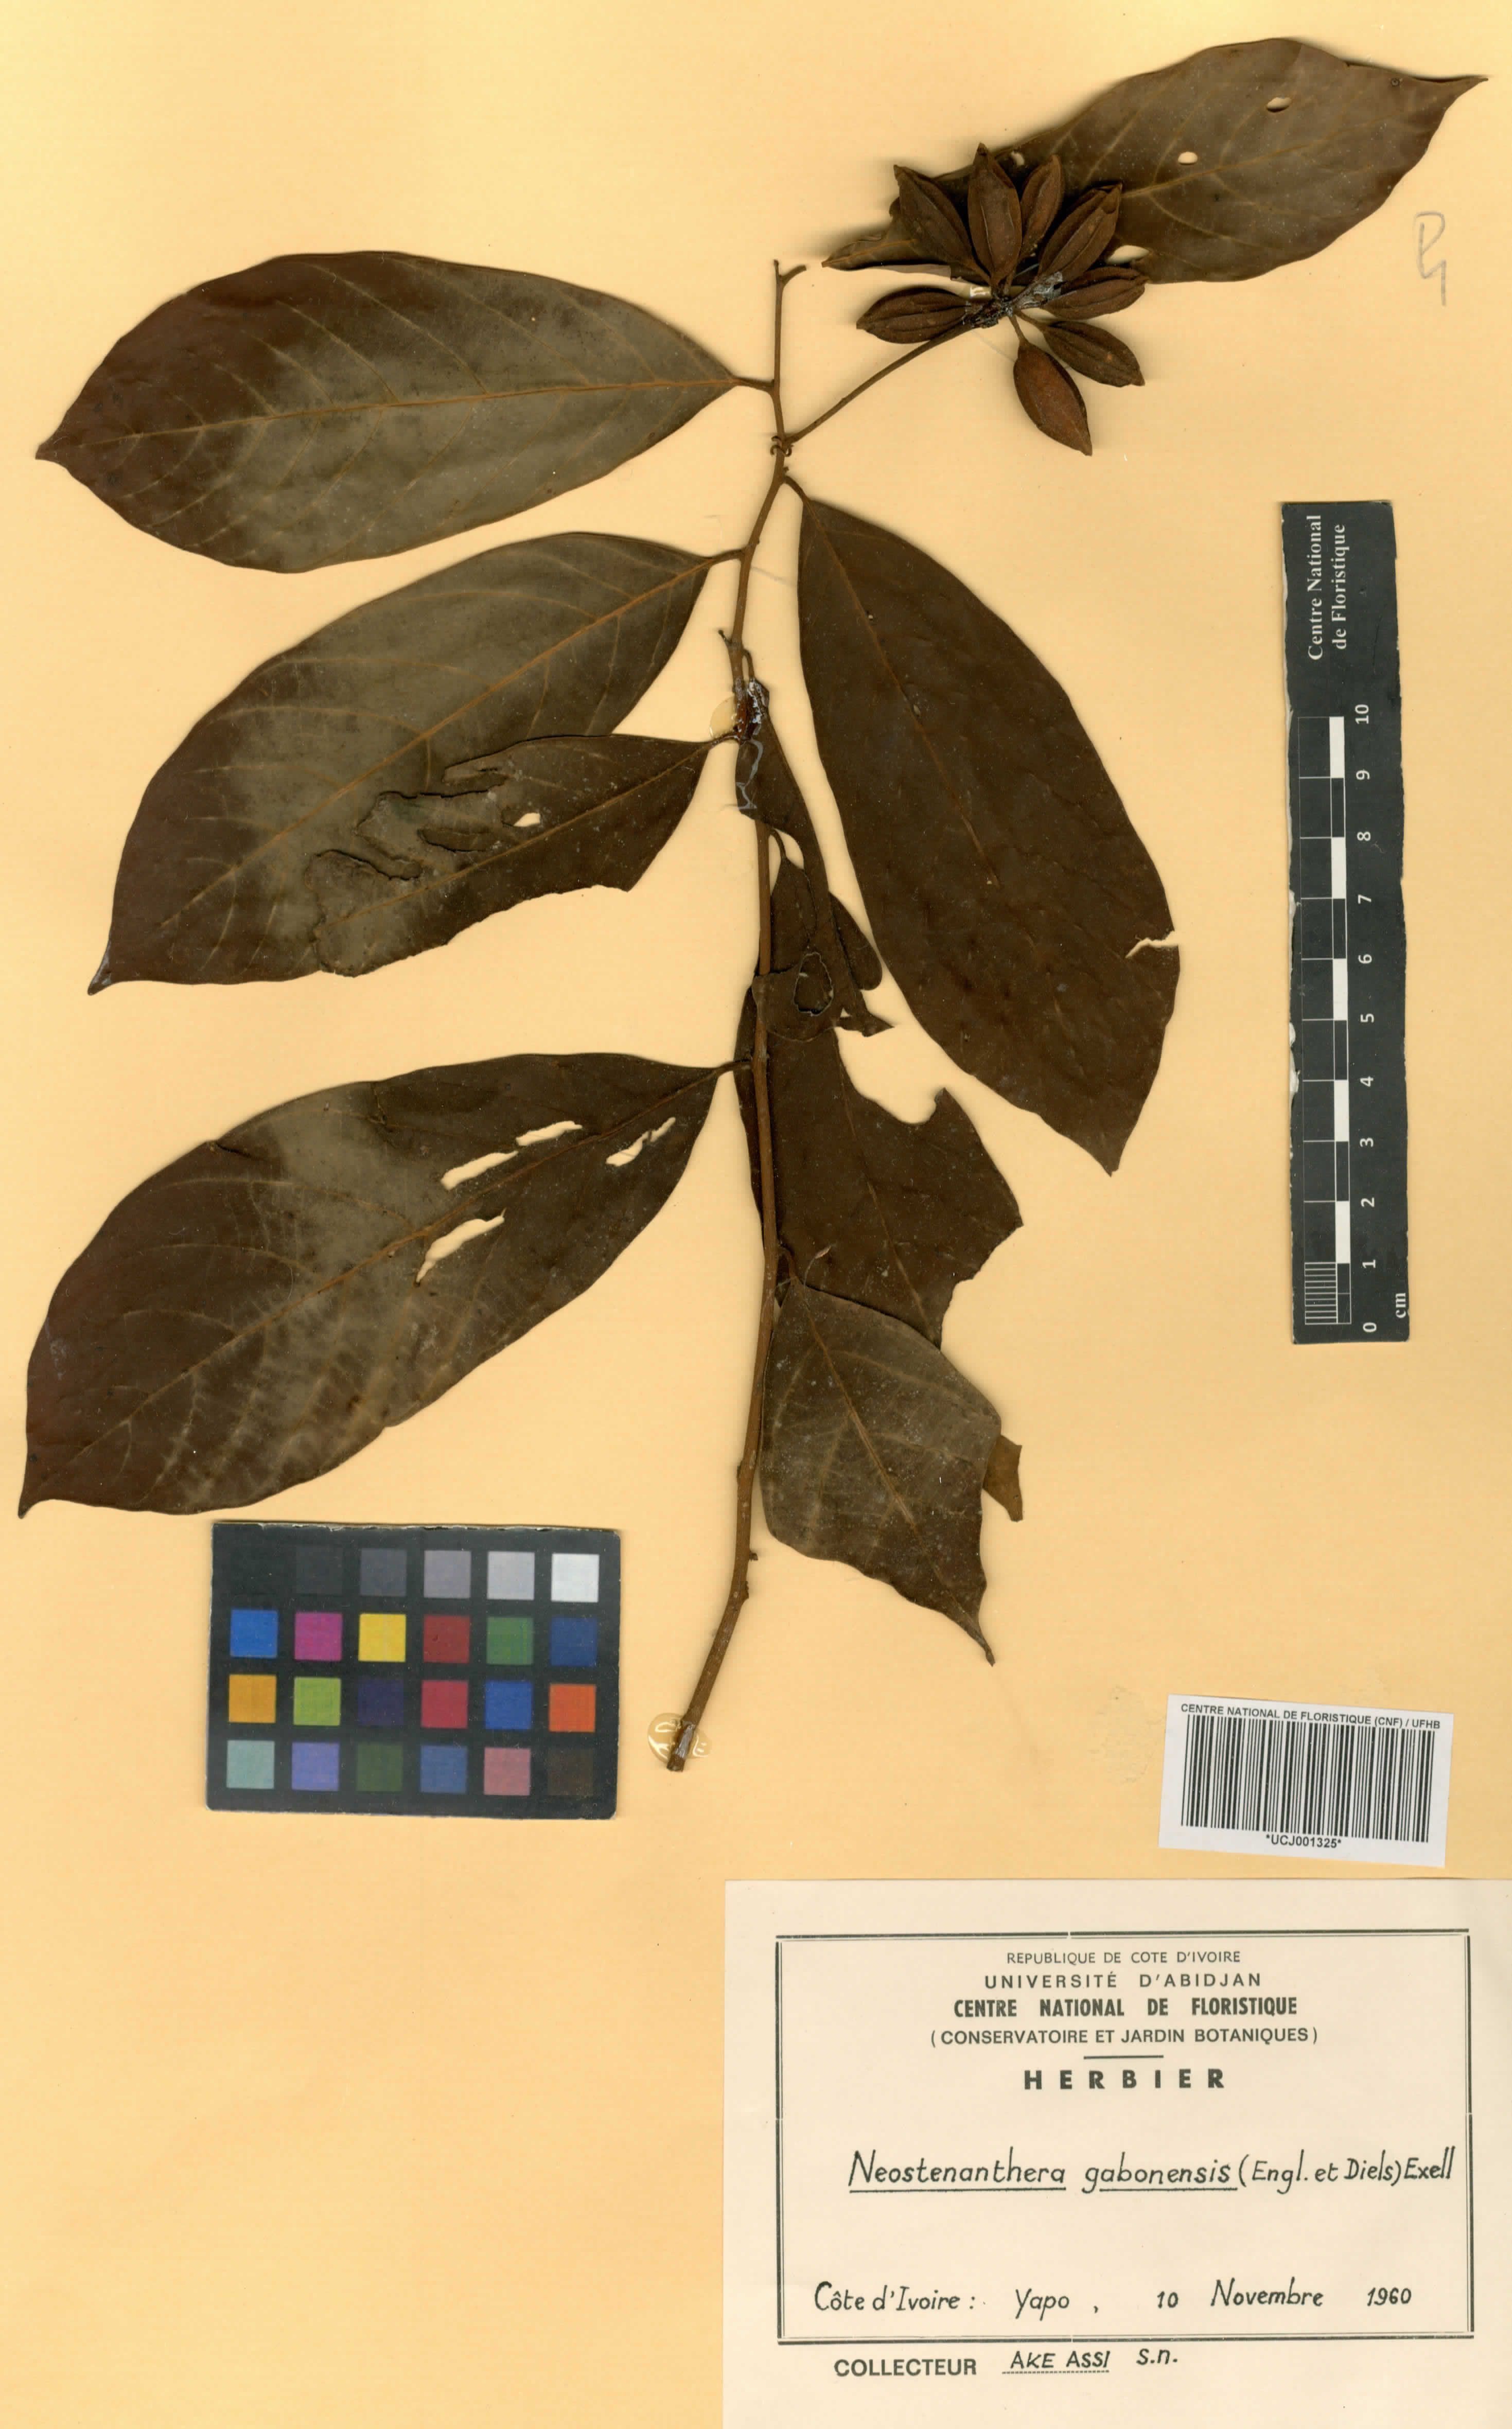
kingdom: Plantae
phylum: Tracheophyta
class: Magnoliopsida
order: Magnoliales
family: Annonaceae
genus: Neostenanthera
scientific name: Neostenanthera gabonensis
